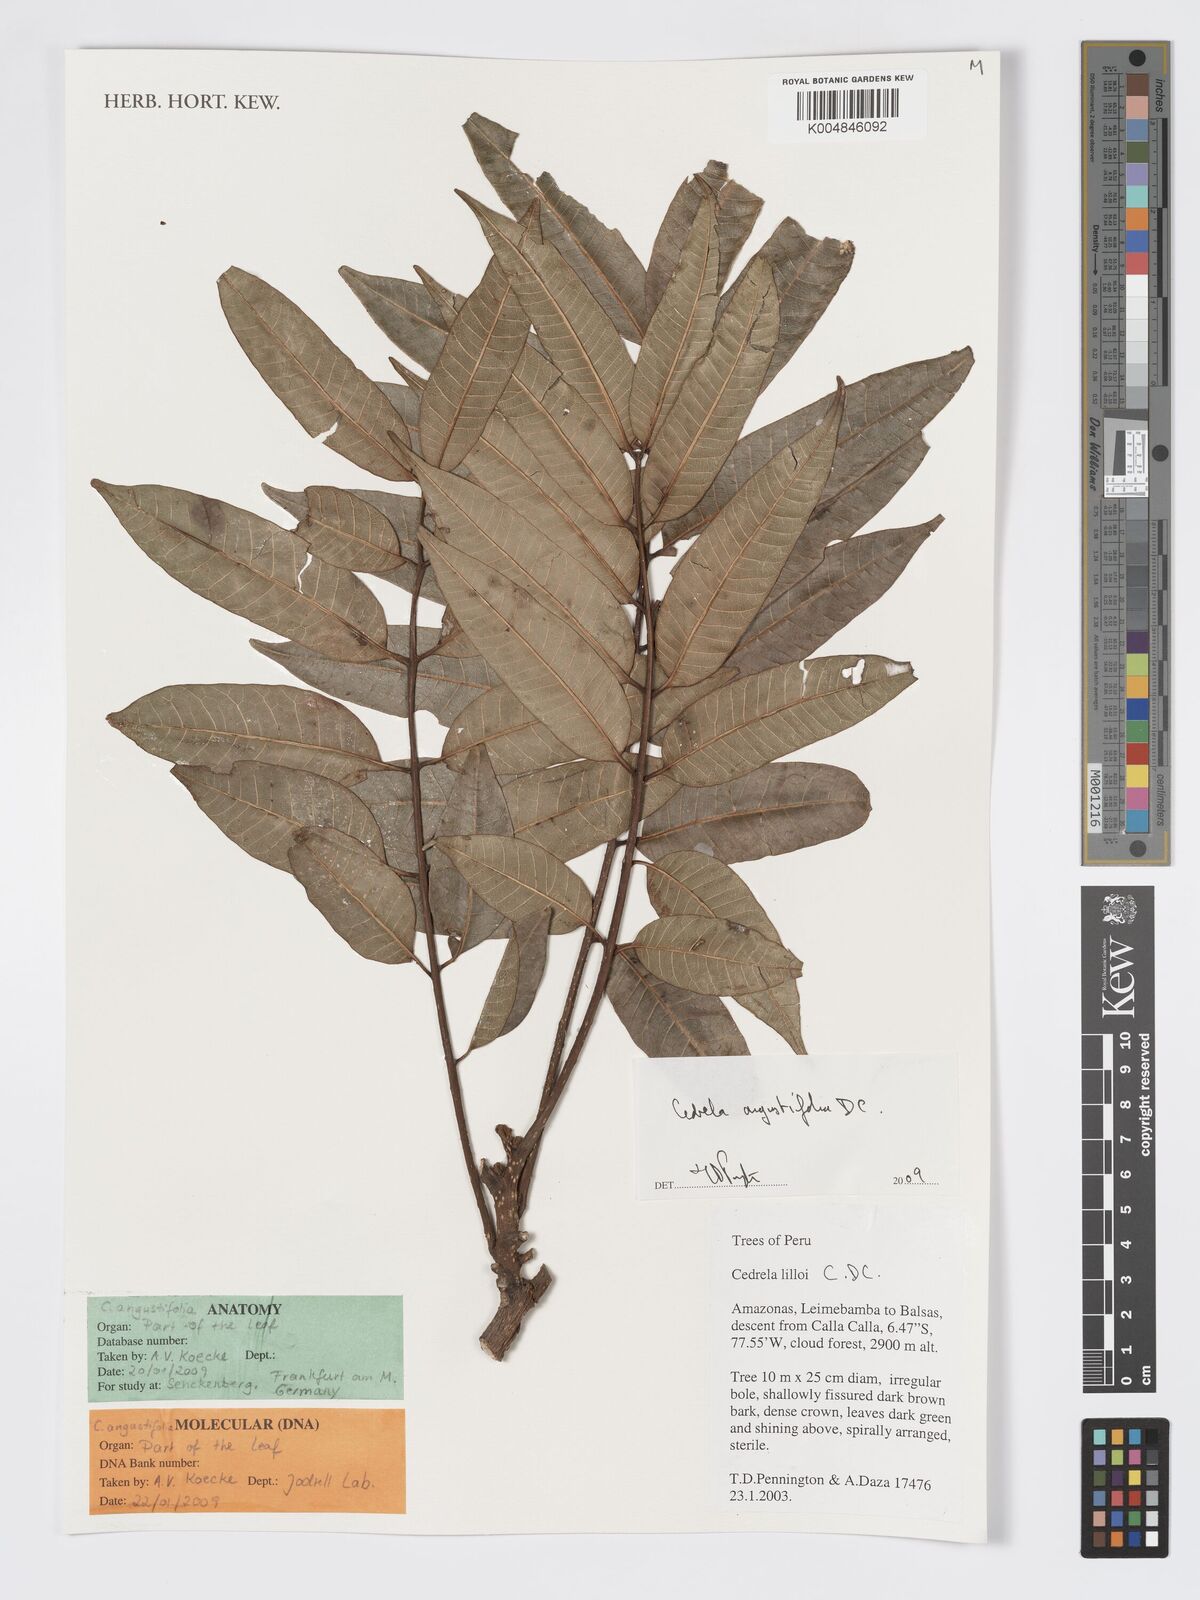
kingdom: Plantae
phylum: Tracheophyta
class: Magnoliopsida
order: Sapindales
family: Meliaceae
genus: Cedrela
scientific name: Cedrela odorata
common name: Red cedar
